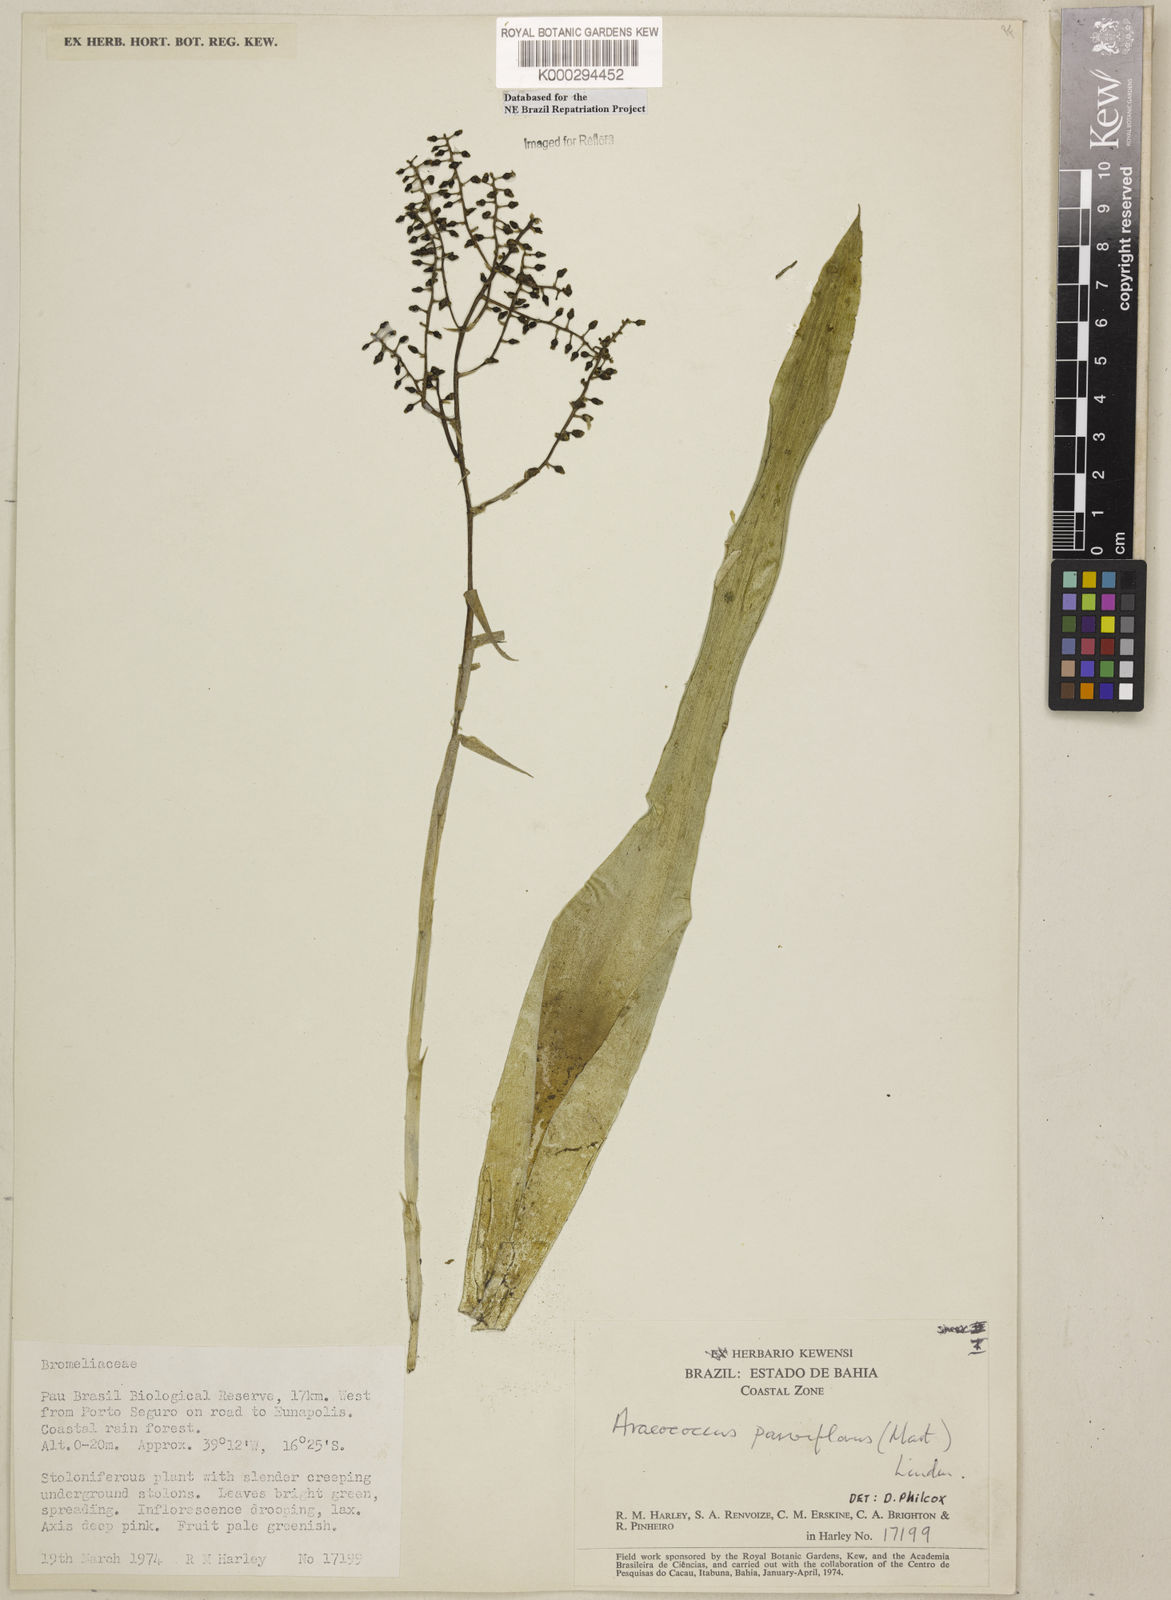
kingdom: Plantae
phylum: Tracheophyta
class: Liliopsida
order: Poales
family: Bromeliaceae
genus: Pseudaraeococcus
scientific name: Pseudaraeococcus parviflorus
